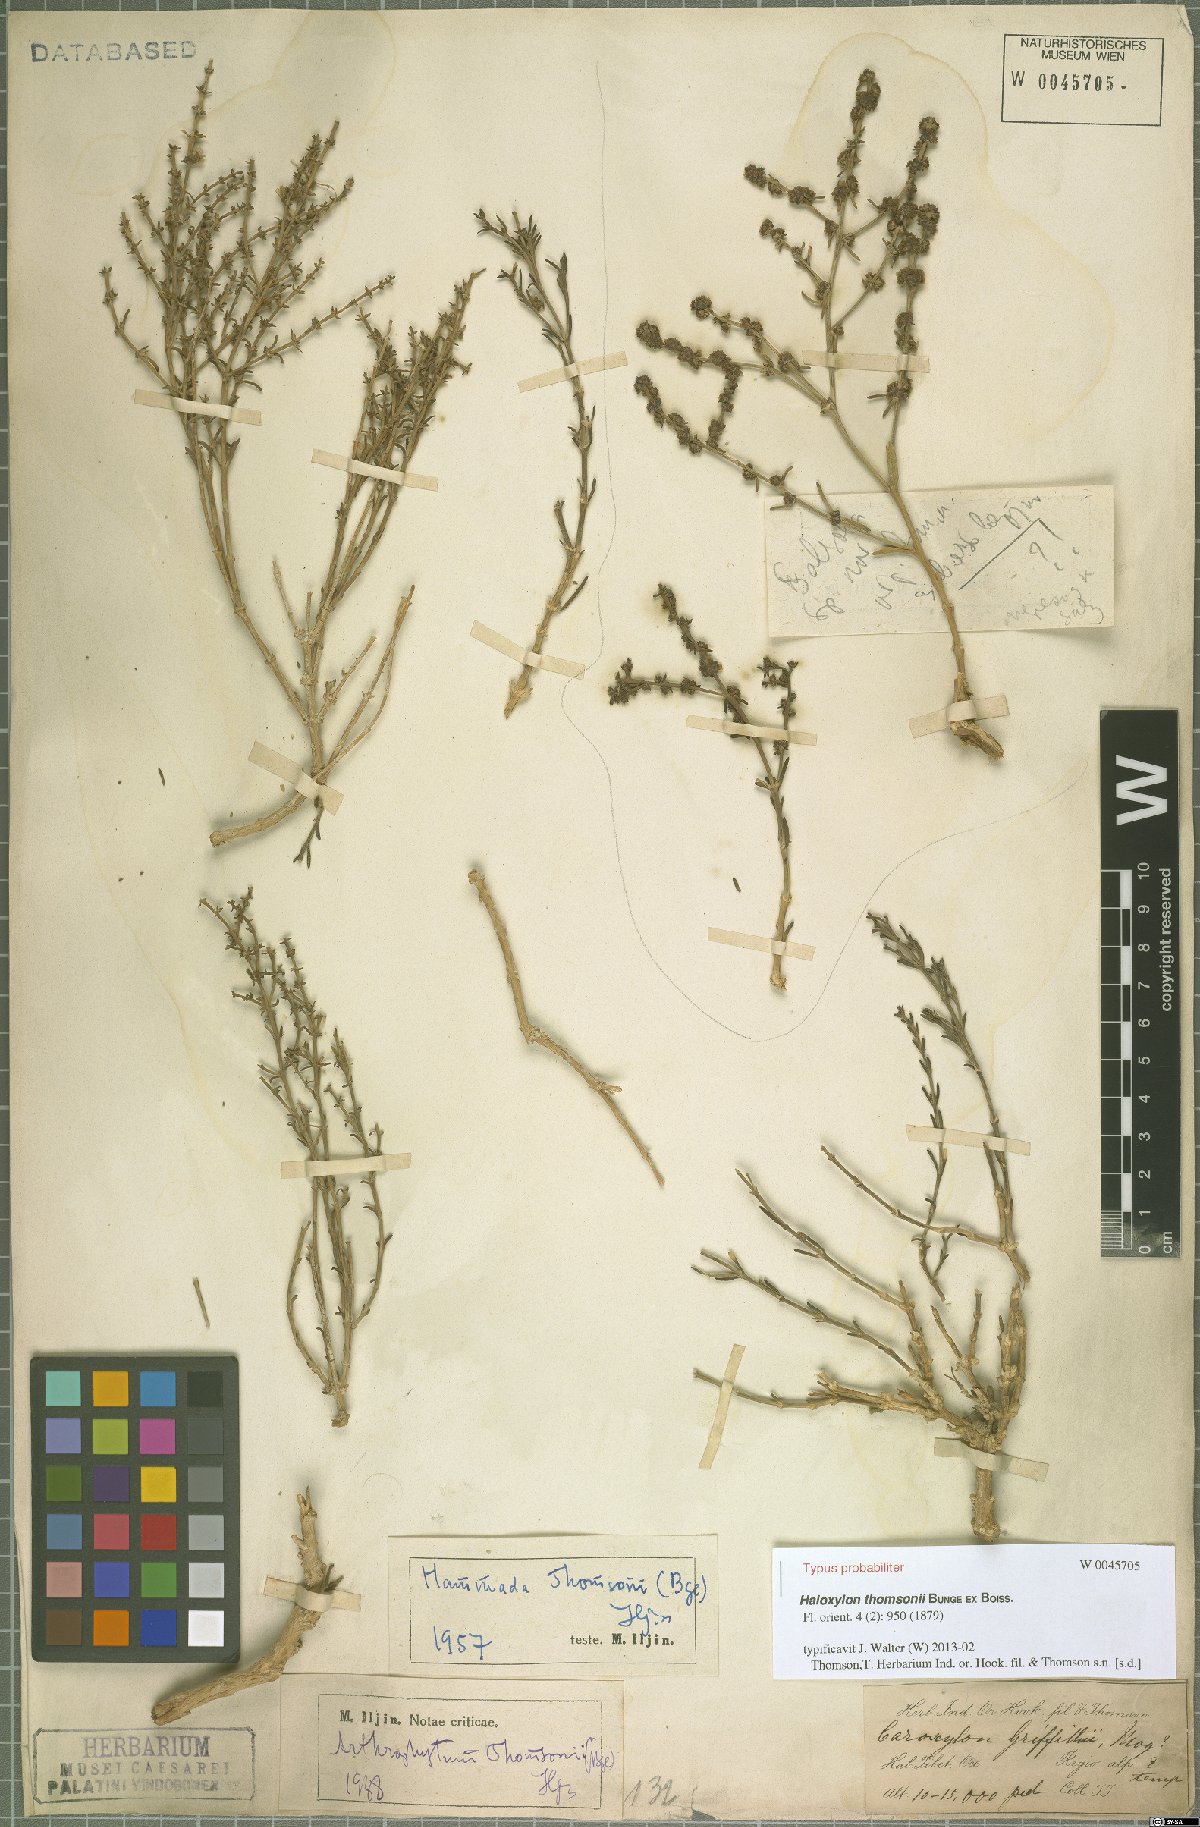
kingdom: Plantae
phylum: Tracheophyta
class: Magnoliopsida
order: Caryophyllales
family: Amaranthaceae
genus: Haloxylon
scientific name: Haloxylon thomsonii
